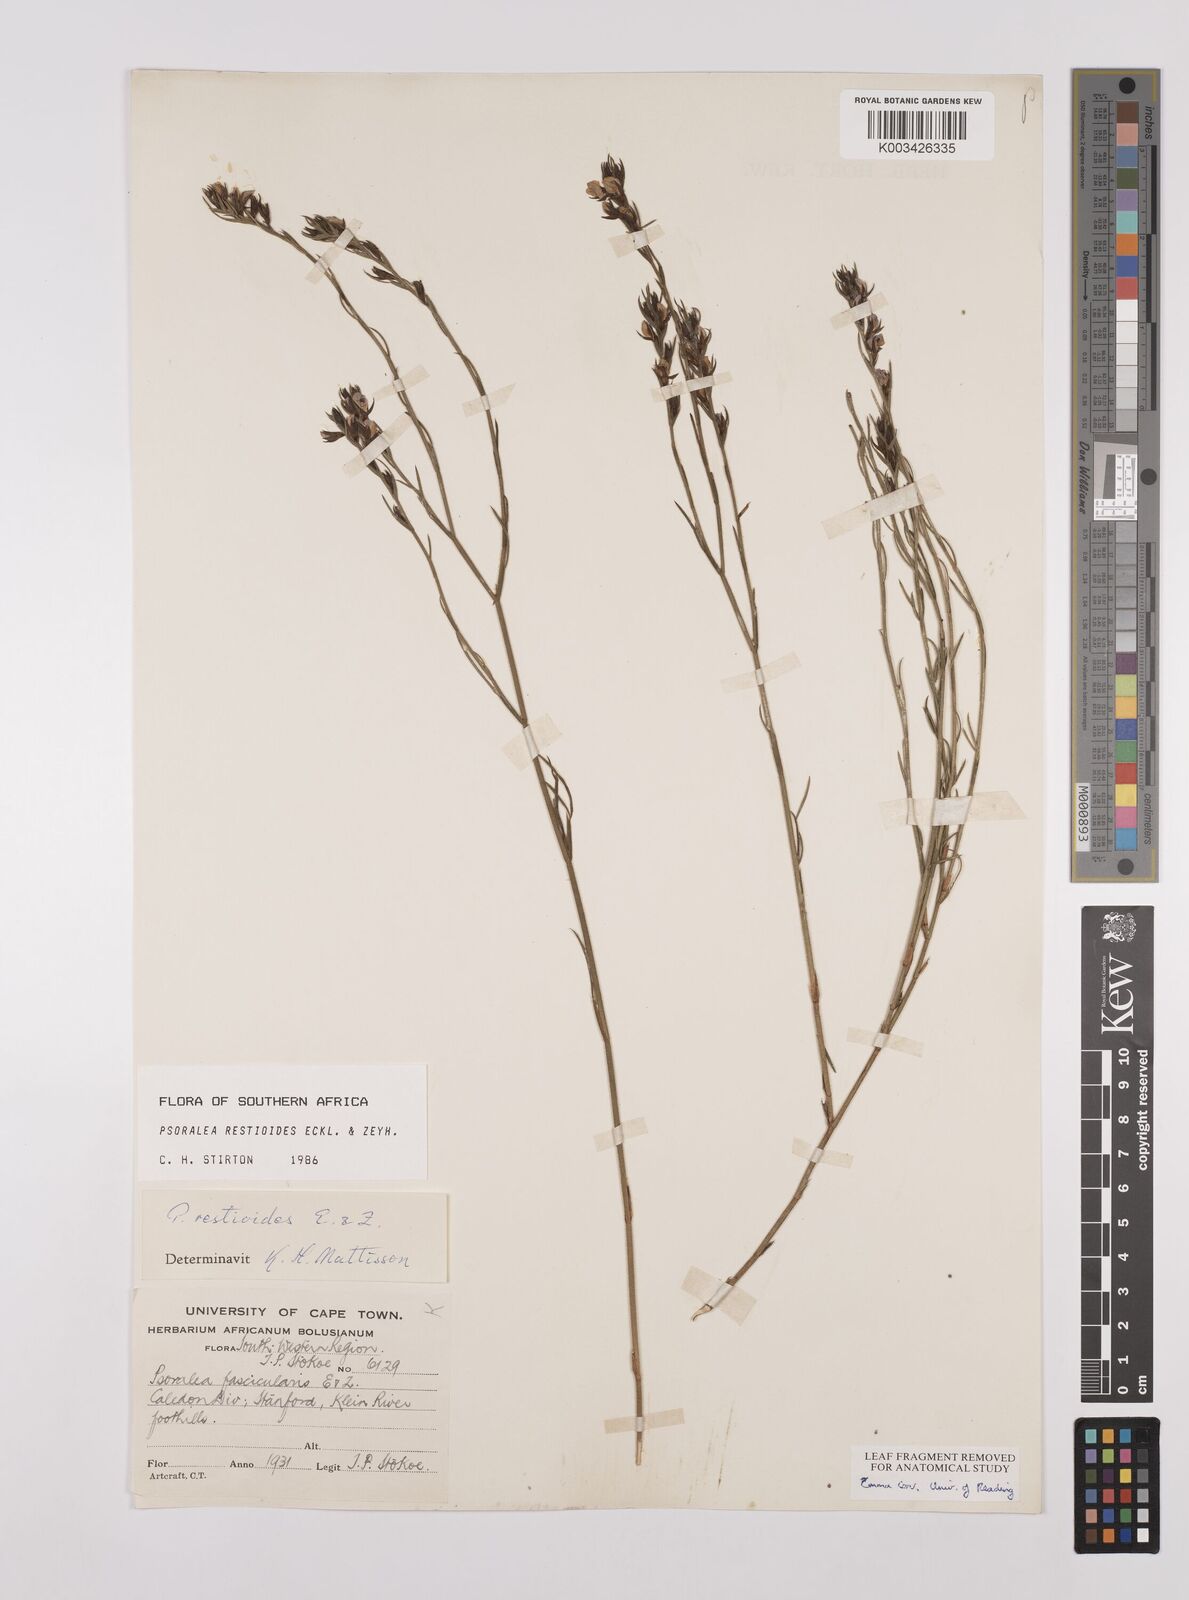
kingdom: Plantae
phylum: Tracheophyta
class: Magnoliopsida
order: Fabales
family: Fabaceae
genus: Psoralea
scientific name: Psoralea restioides
